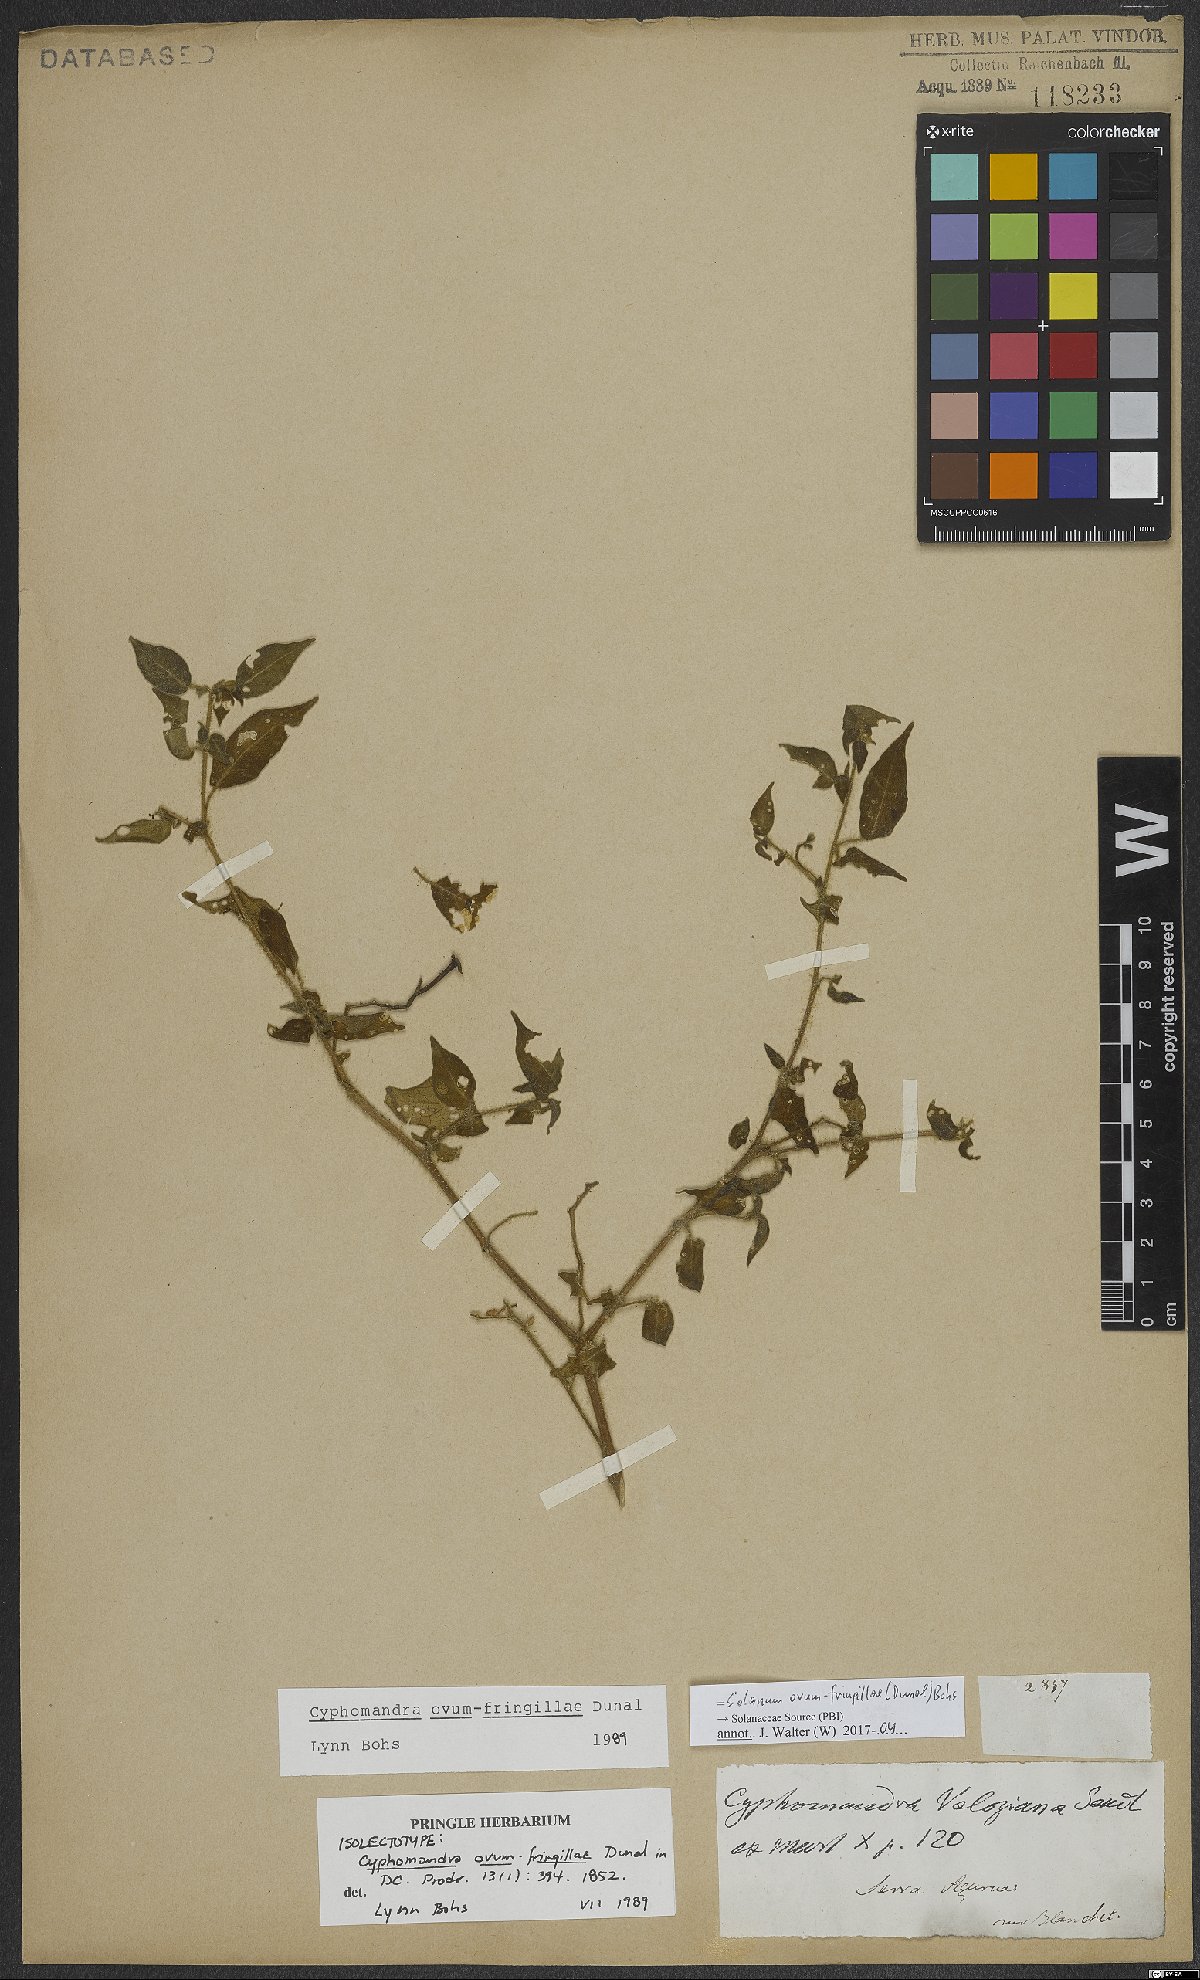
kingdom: Plantae
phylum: Tracheophyta
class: Magnoliopsida
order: Solanales
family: Solanaceae
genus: Solanum
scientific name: Solanum ovum-fringillae
